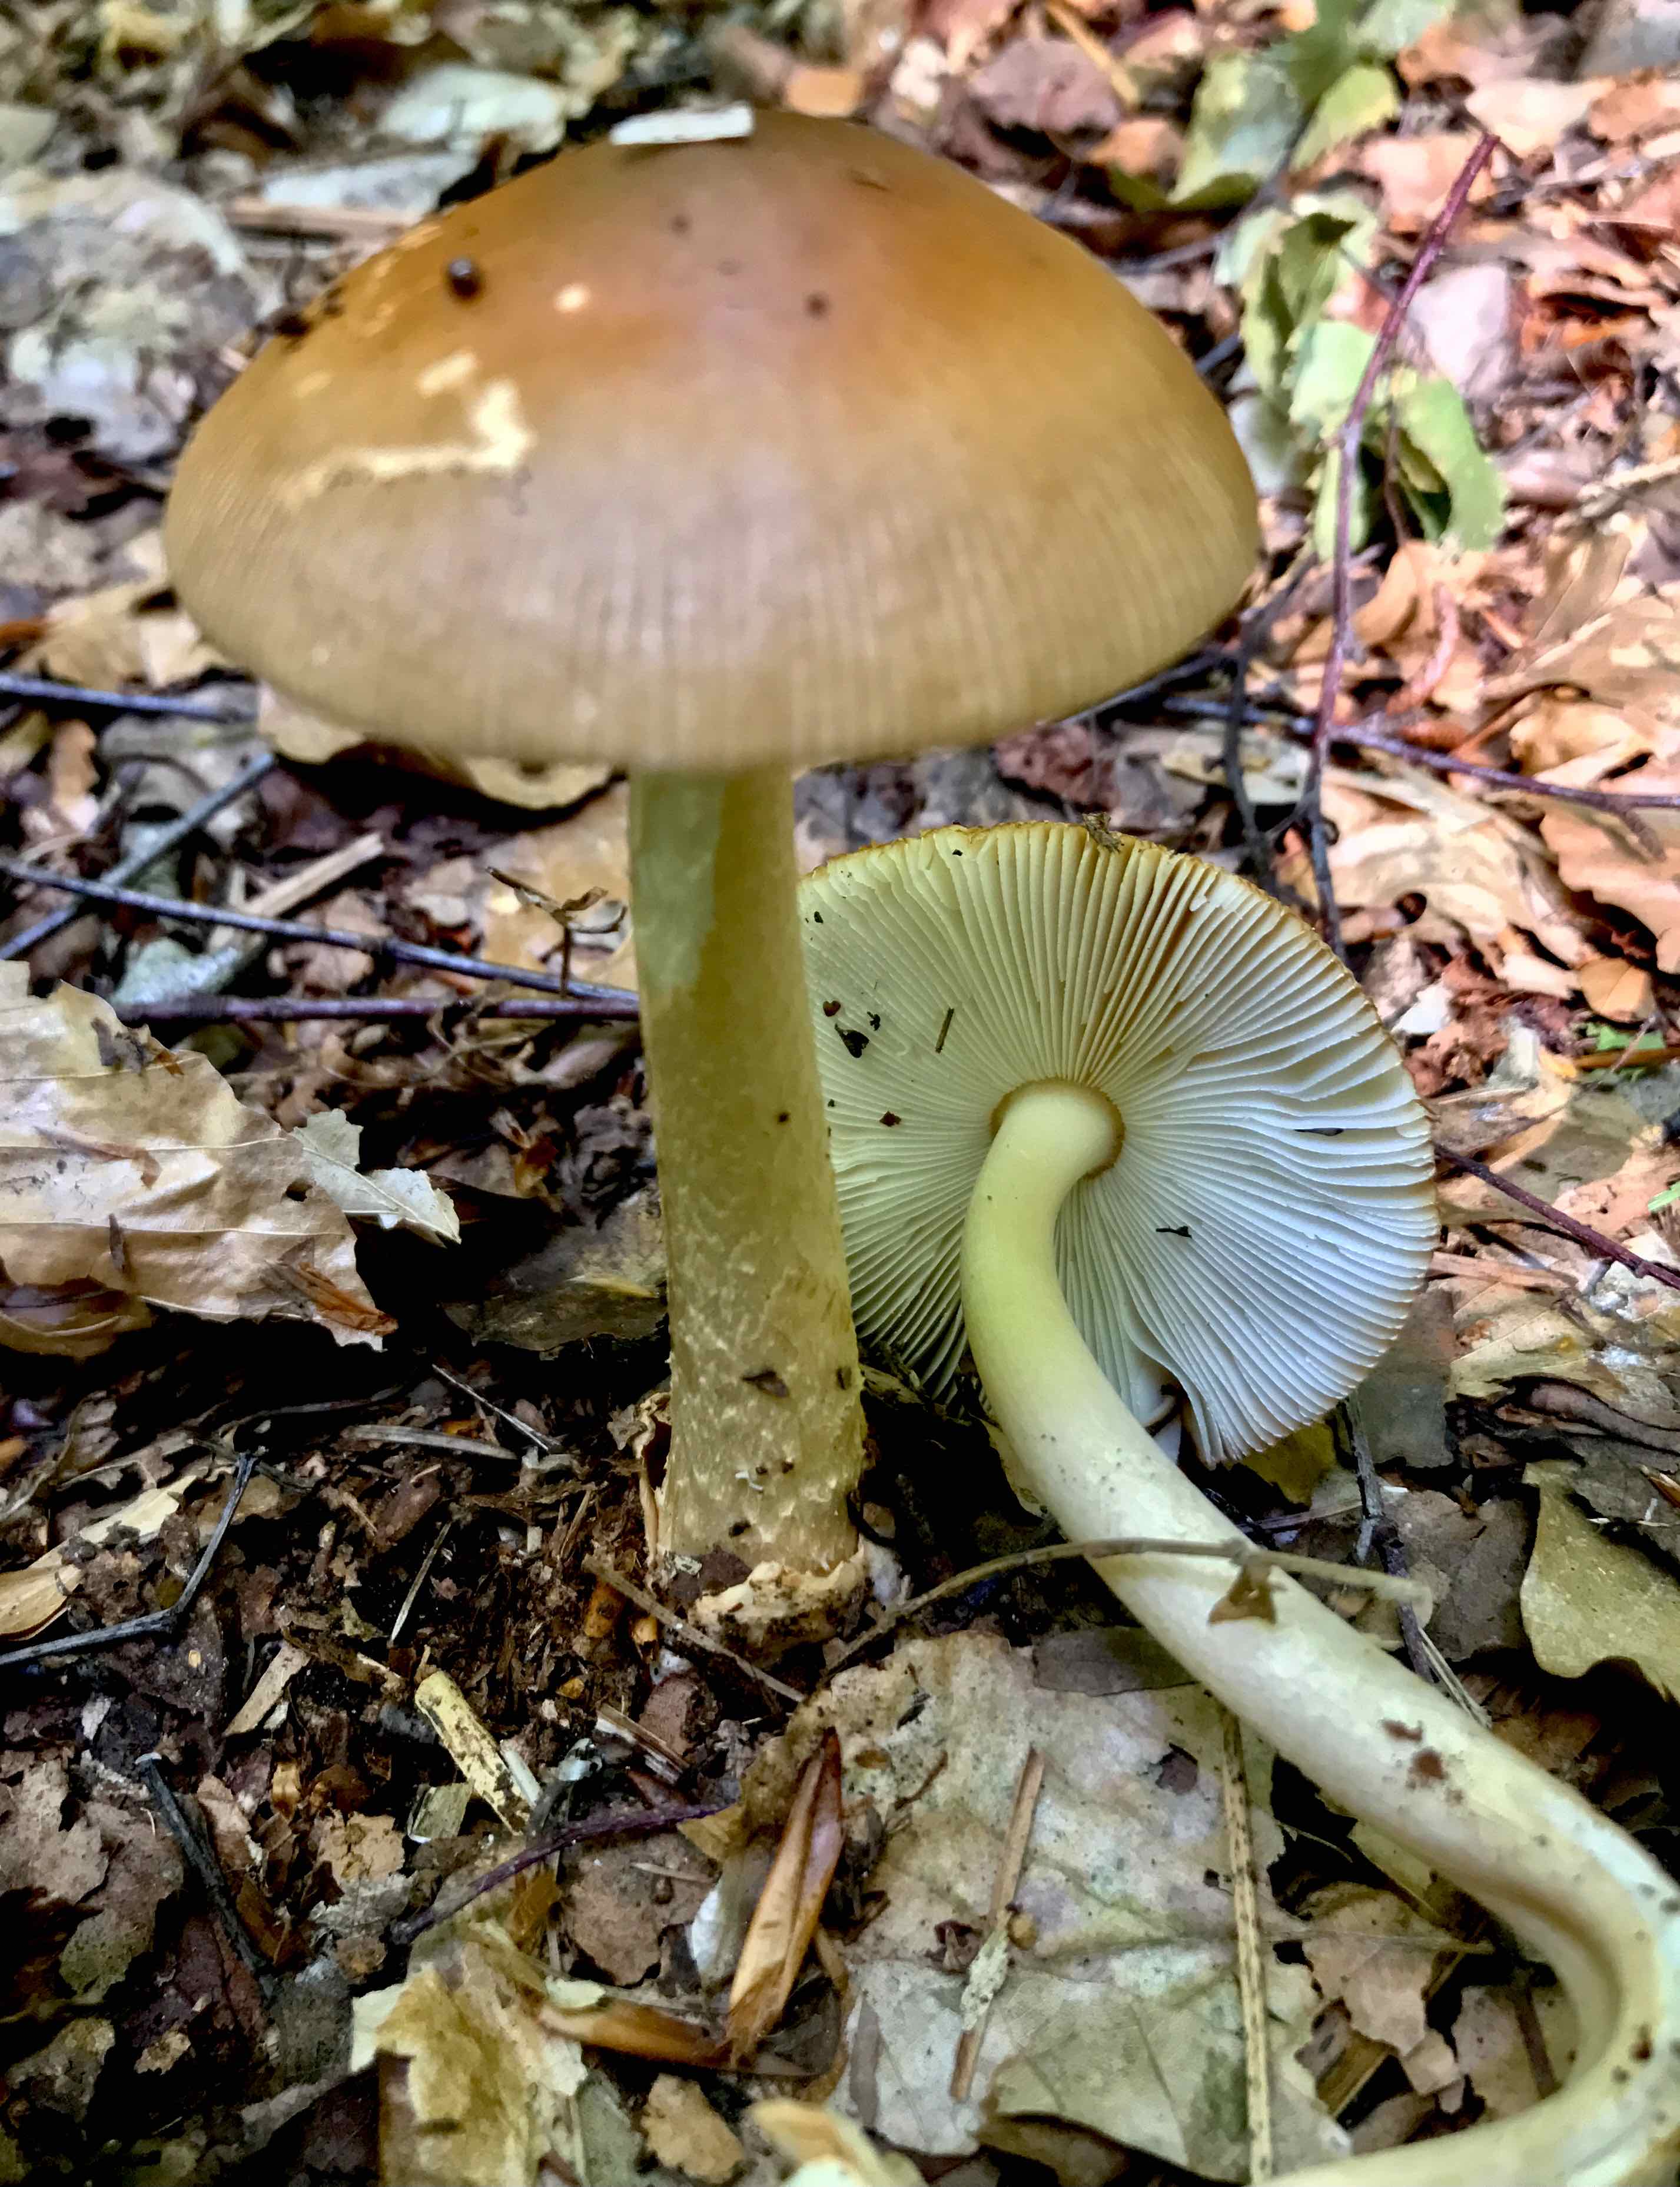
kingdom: Fungi
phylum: Basidiomycota
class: Agaricomycetes
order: Agaricales
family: Amanitaceae
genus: Amanita
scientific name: Amanita fulva
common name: brun kam-fluesvamp
